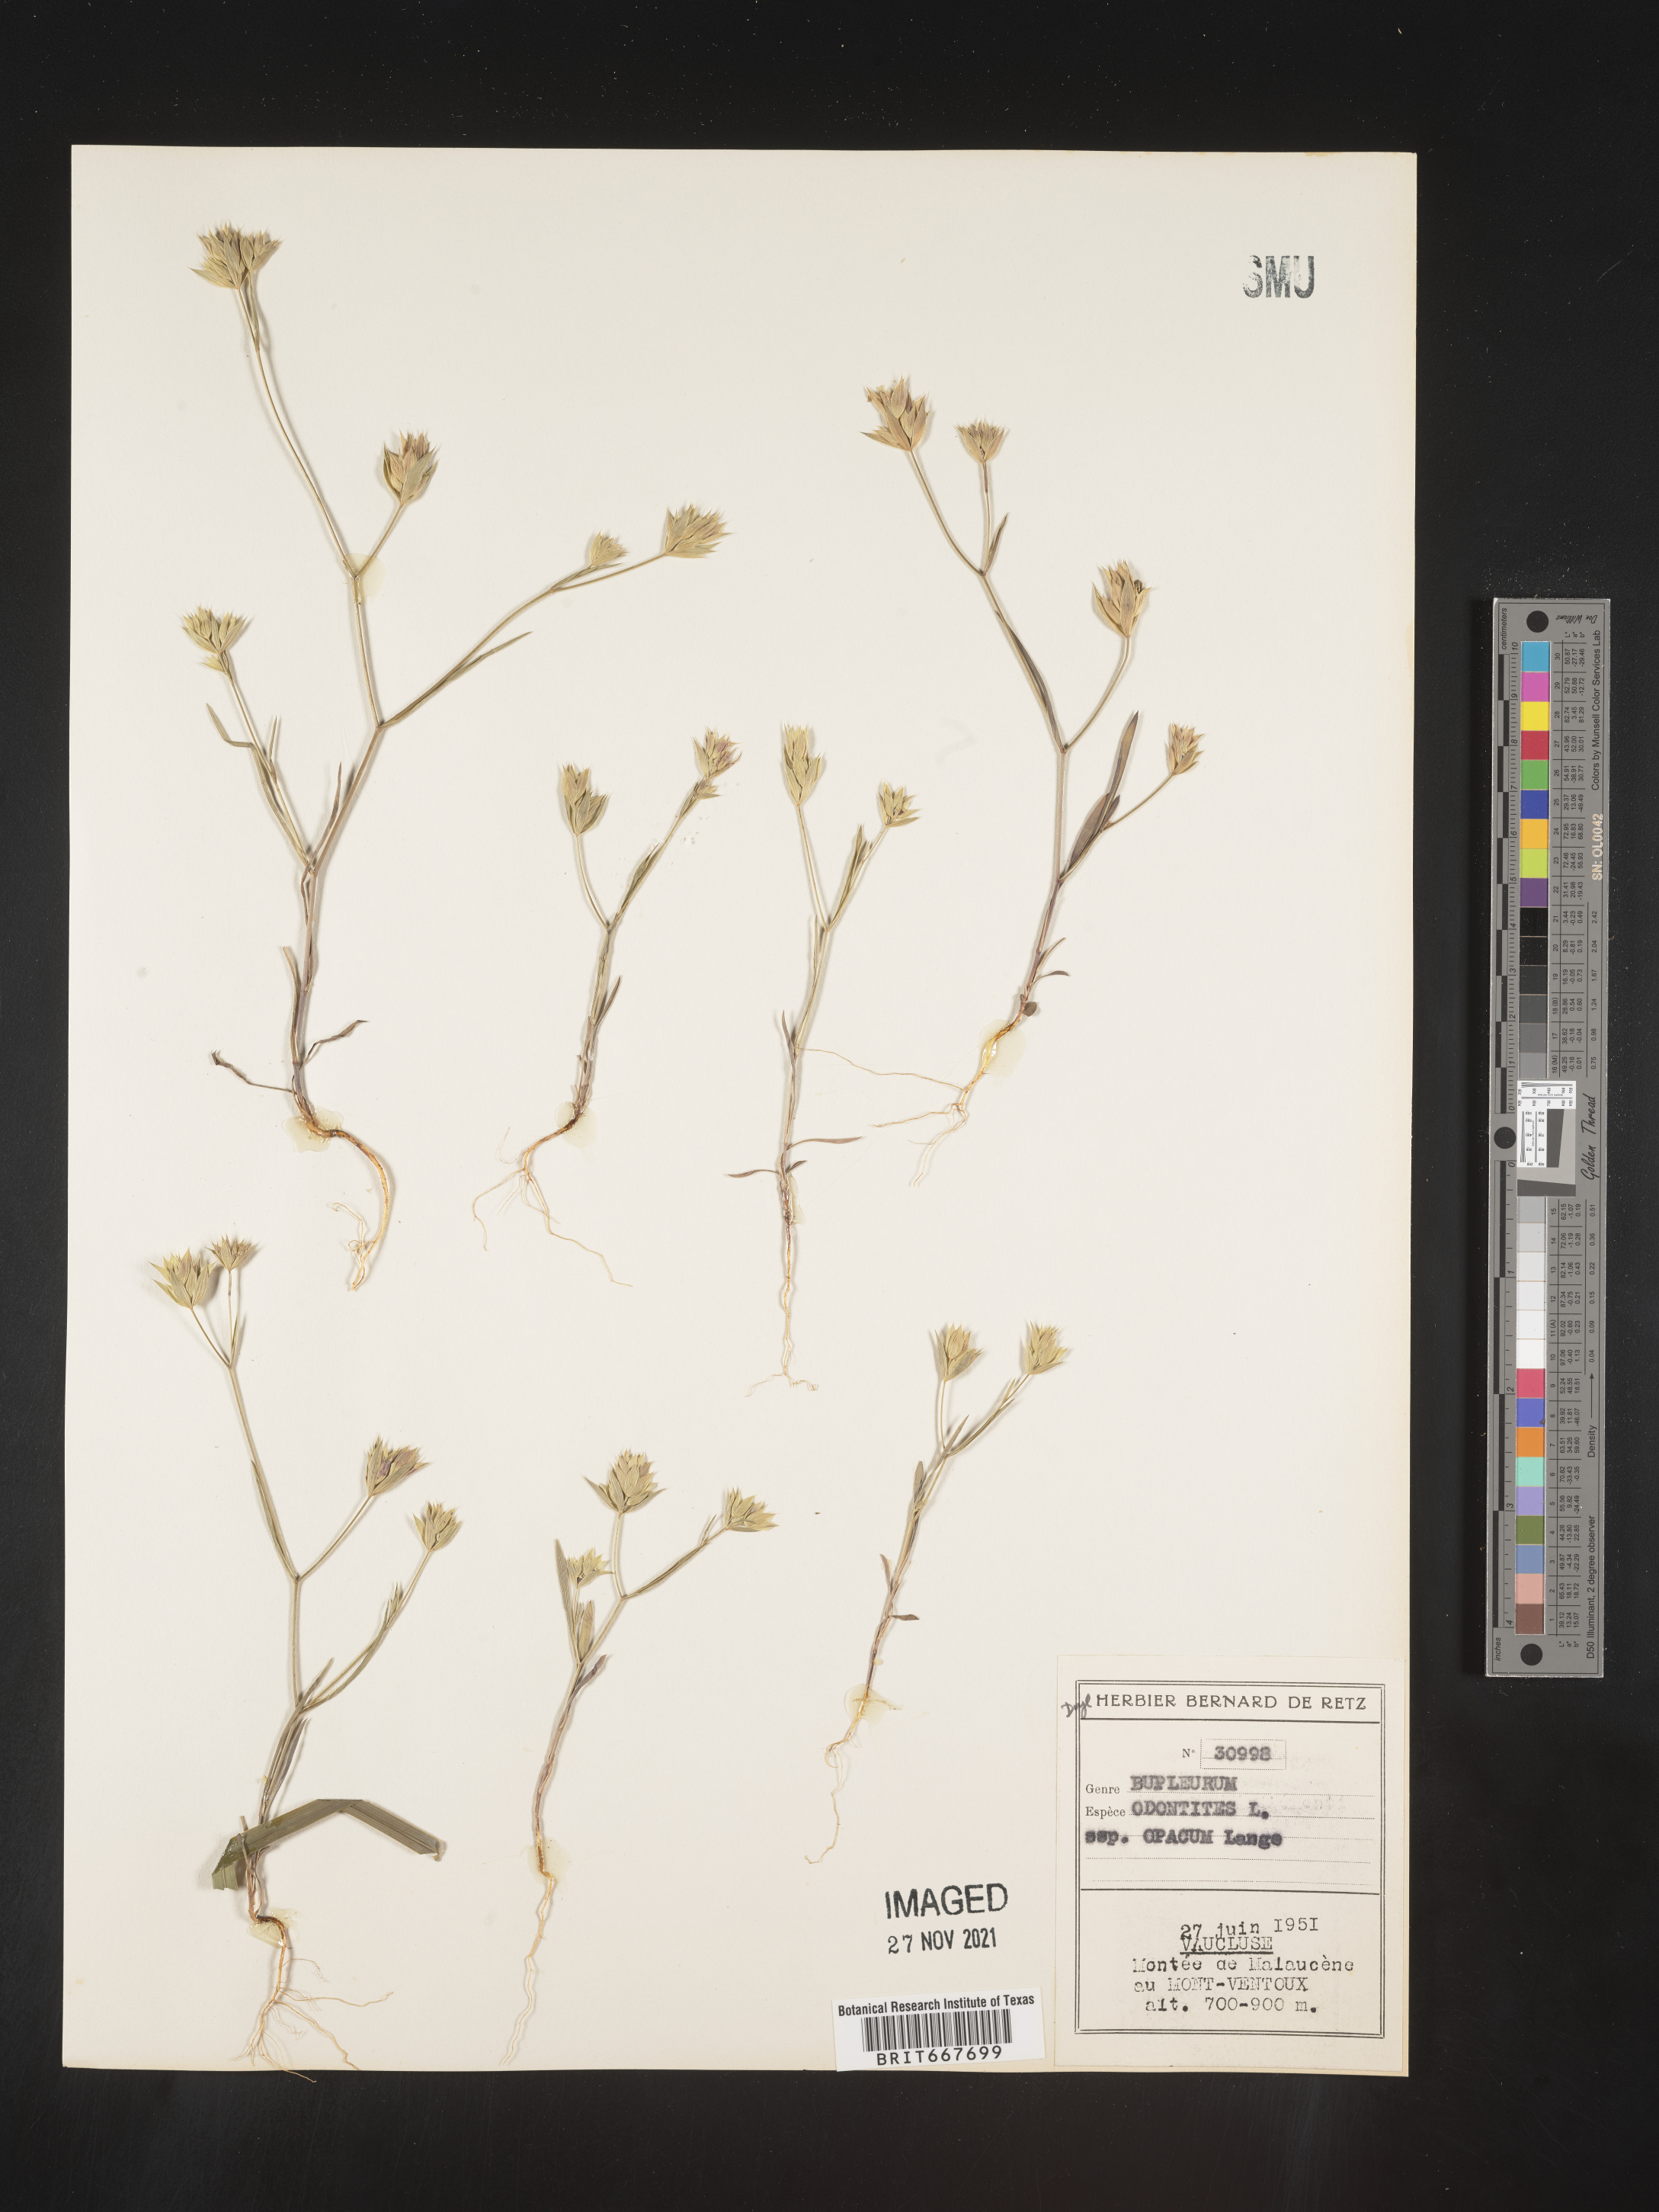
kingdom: Plantae
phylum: Tracheophyta
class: Magnoliopsida
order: Apiales
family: Apiaceae
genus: Bupleurum
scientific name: Bupleurum
